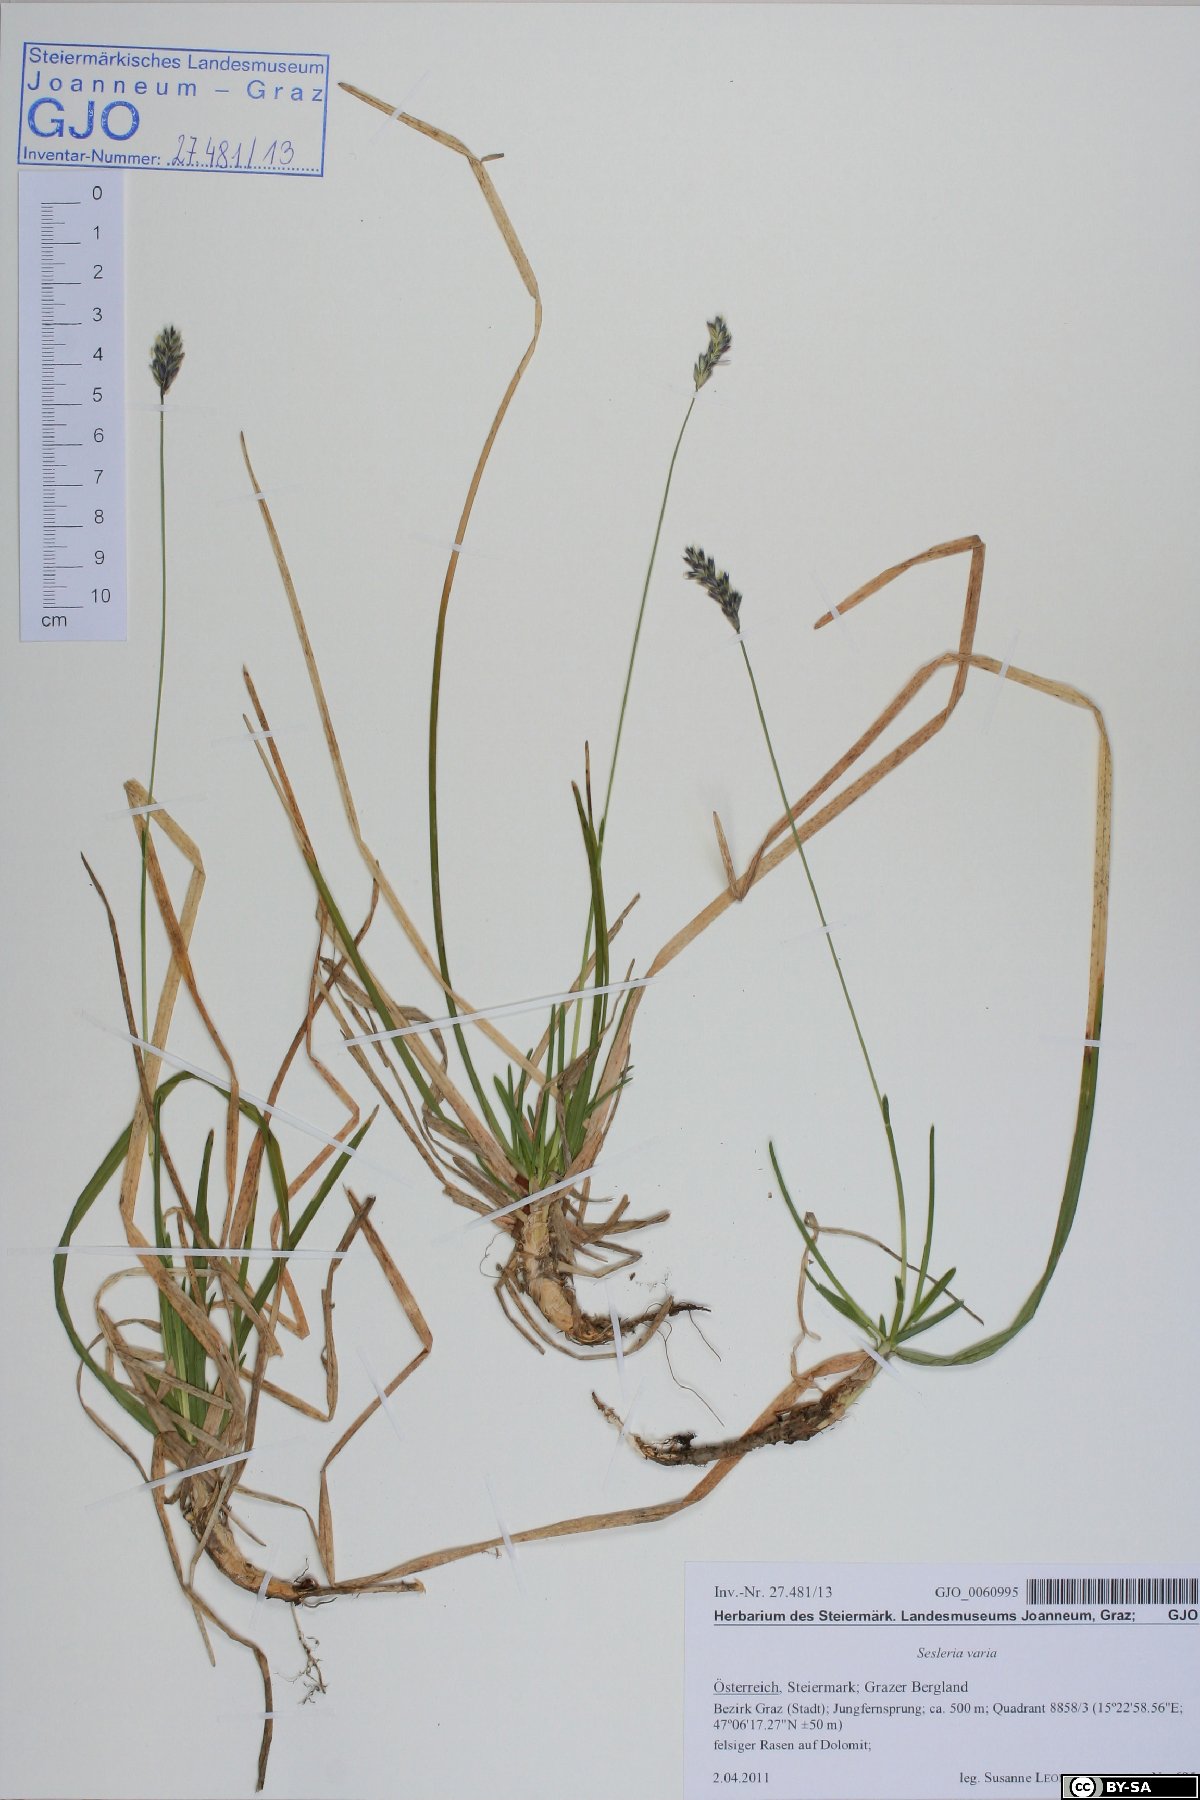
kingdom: Plantae
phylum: Tracheophyta
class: Liliopsida
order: Poales
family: Poaceae
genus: Sesleria
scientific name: Sesleria caerulea
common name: Blue moor-grass
